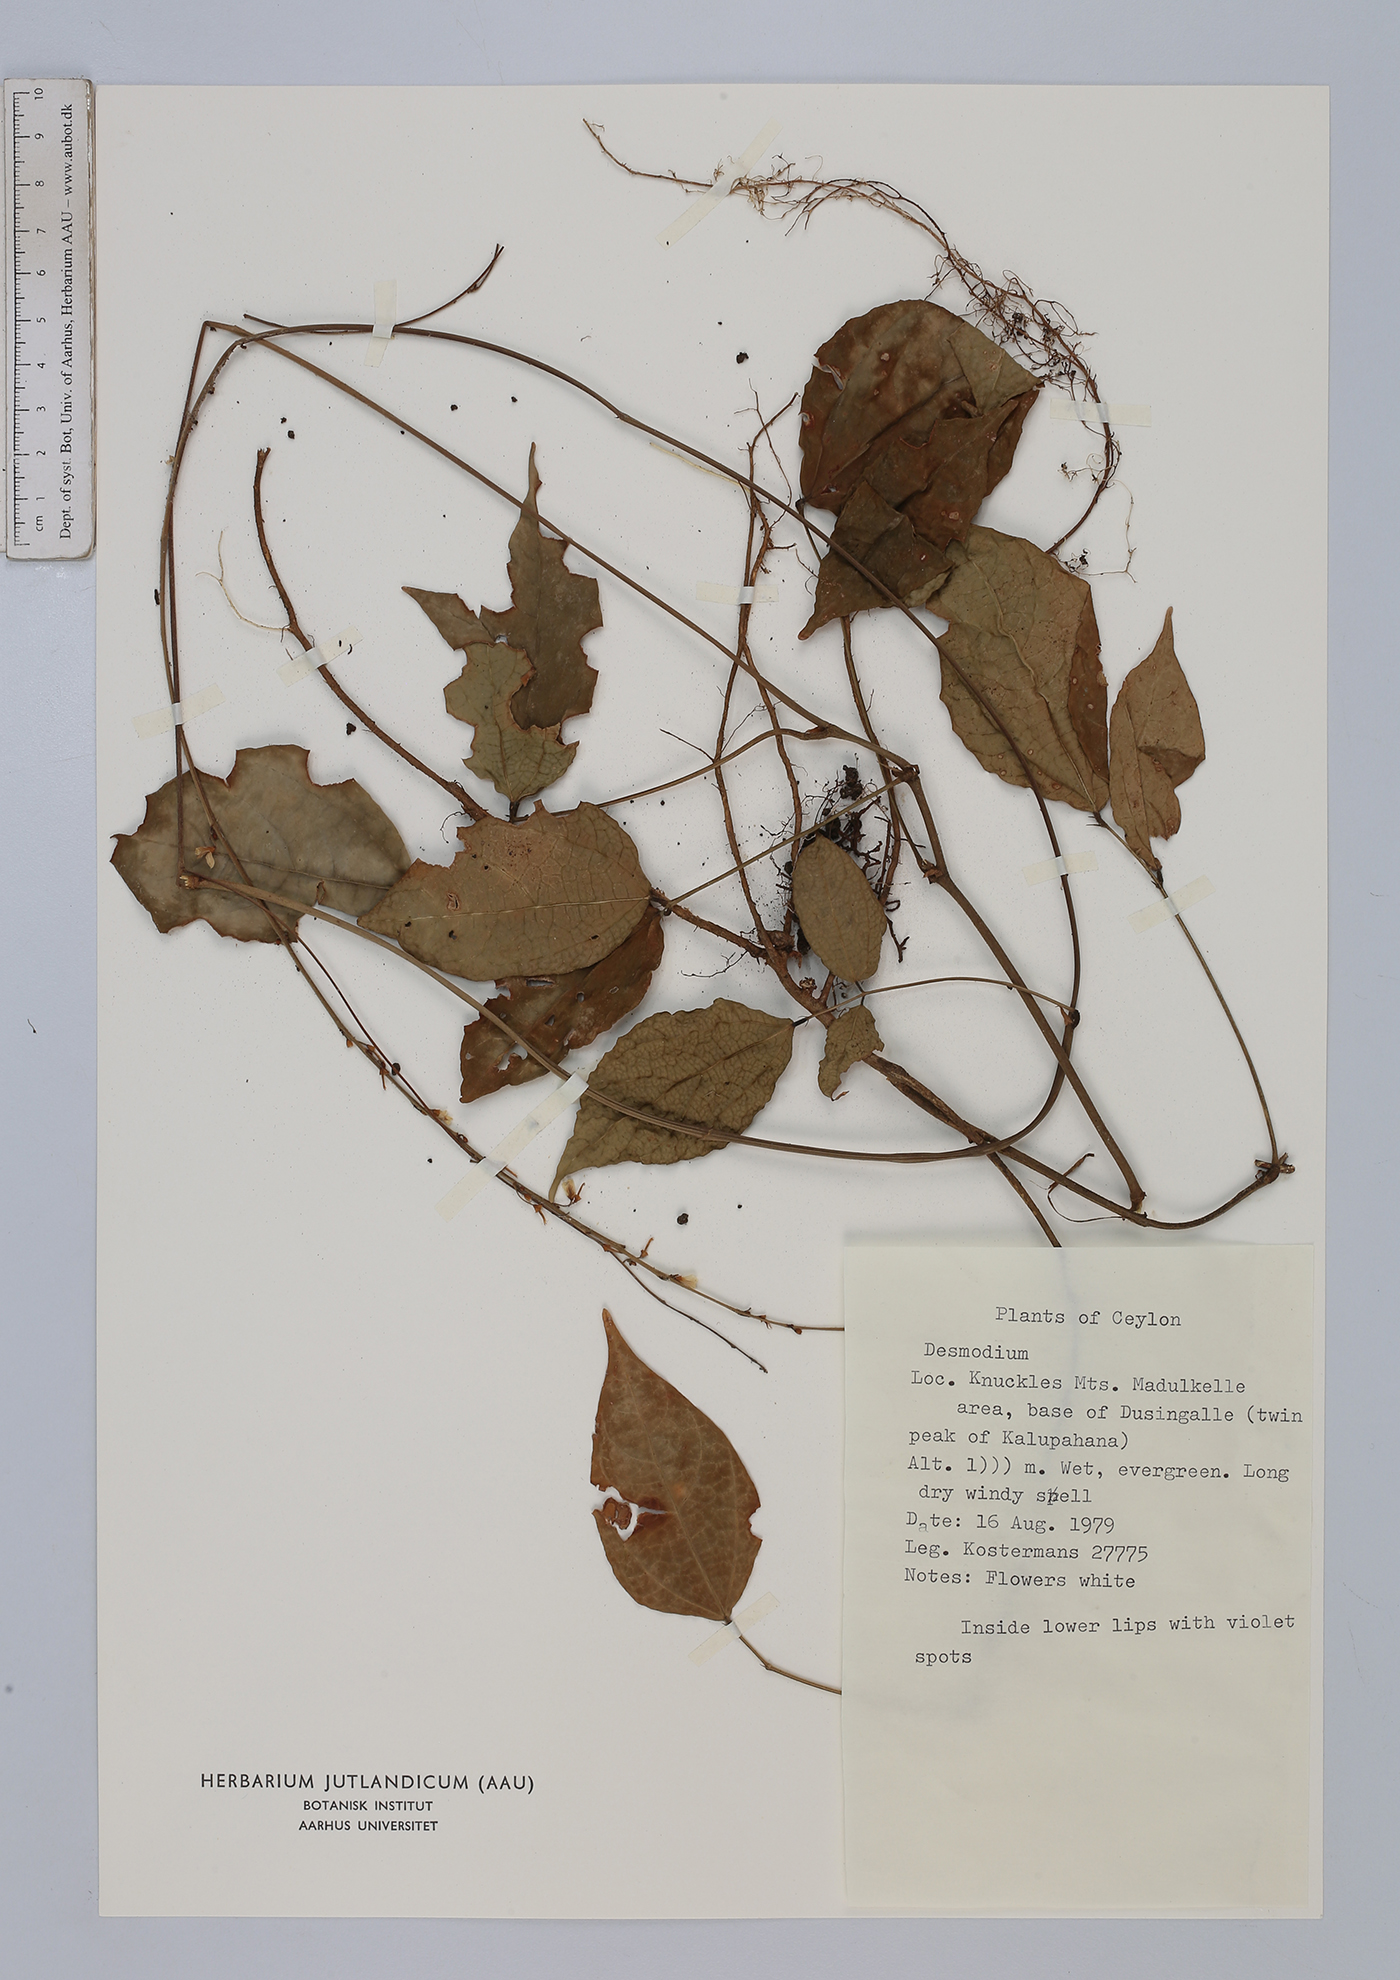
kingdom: Plantae
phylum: Tracheophyta
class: Magnoliopsida
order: Fabales
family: Fabaceae
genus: Desmodium
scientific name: Desmodium
